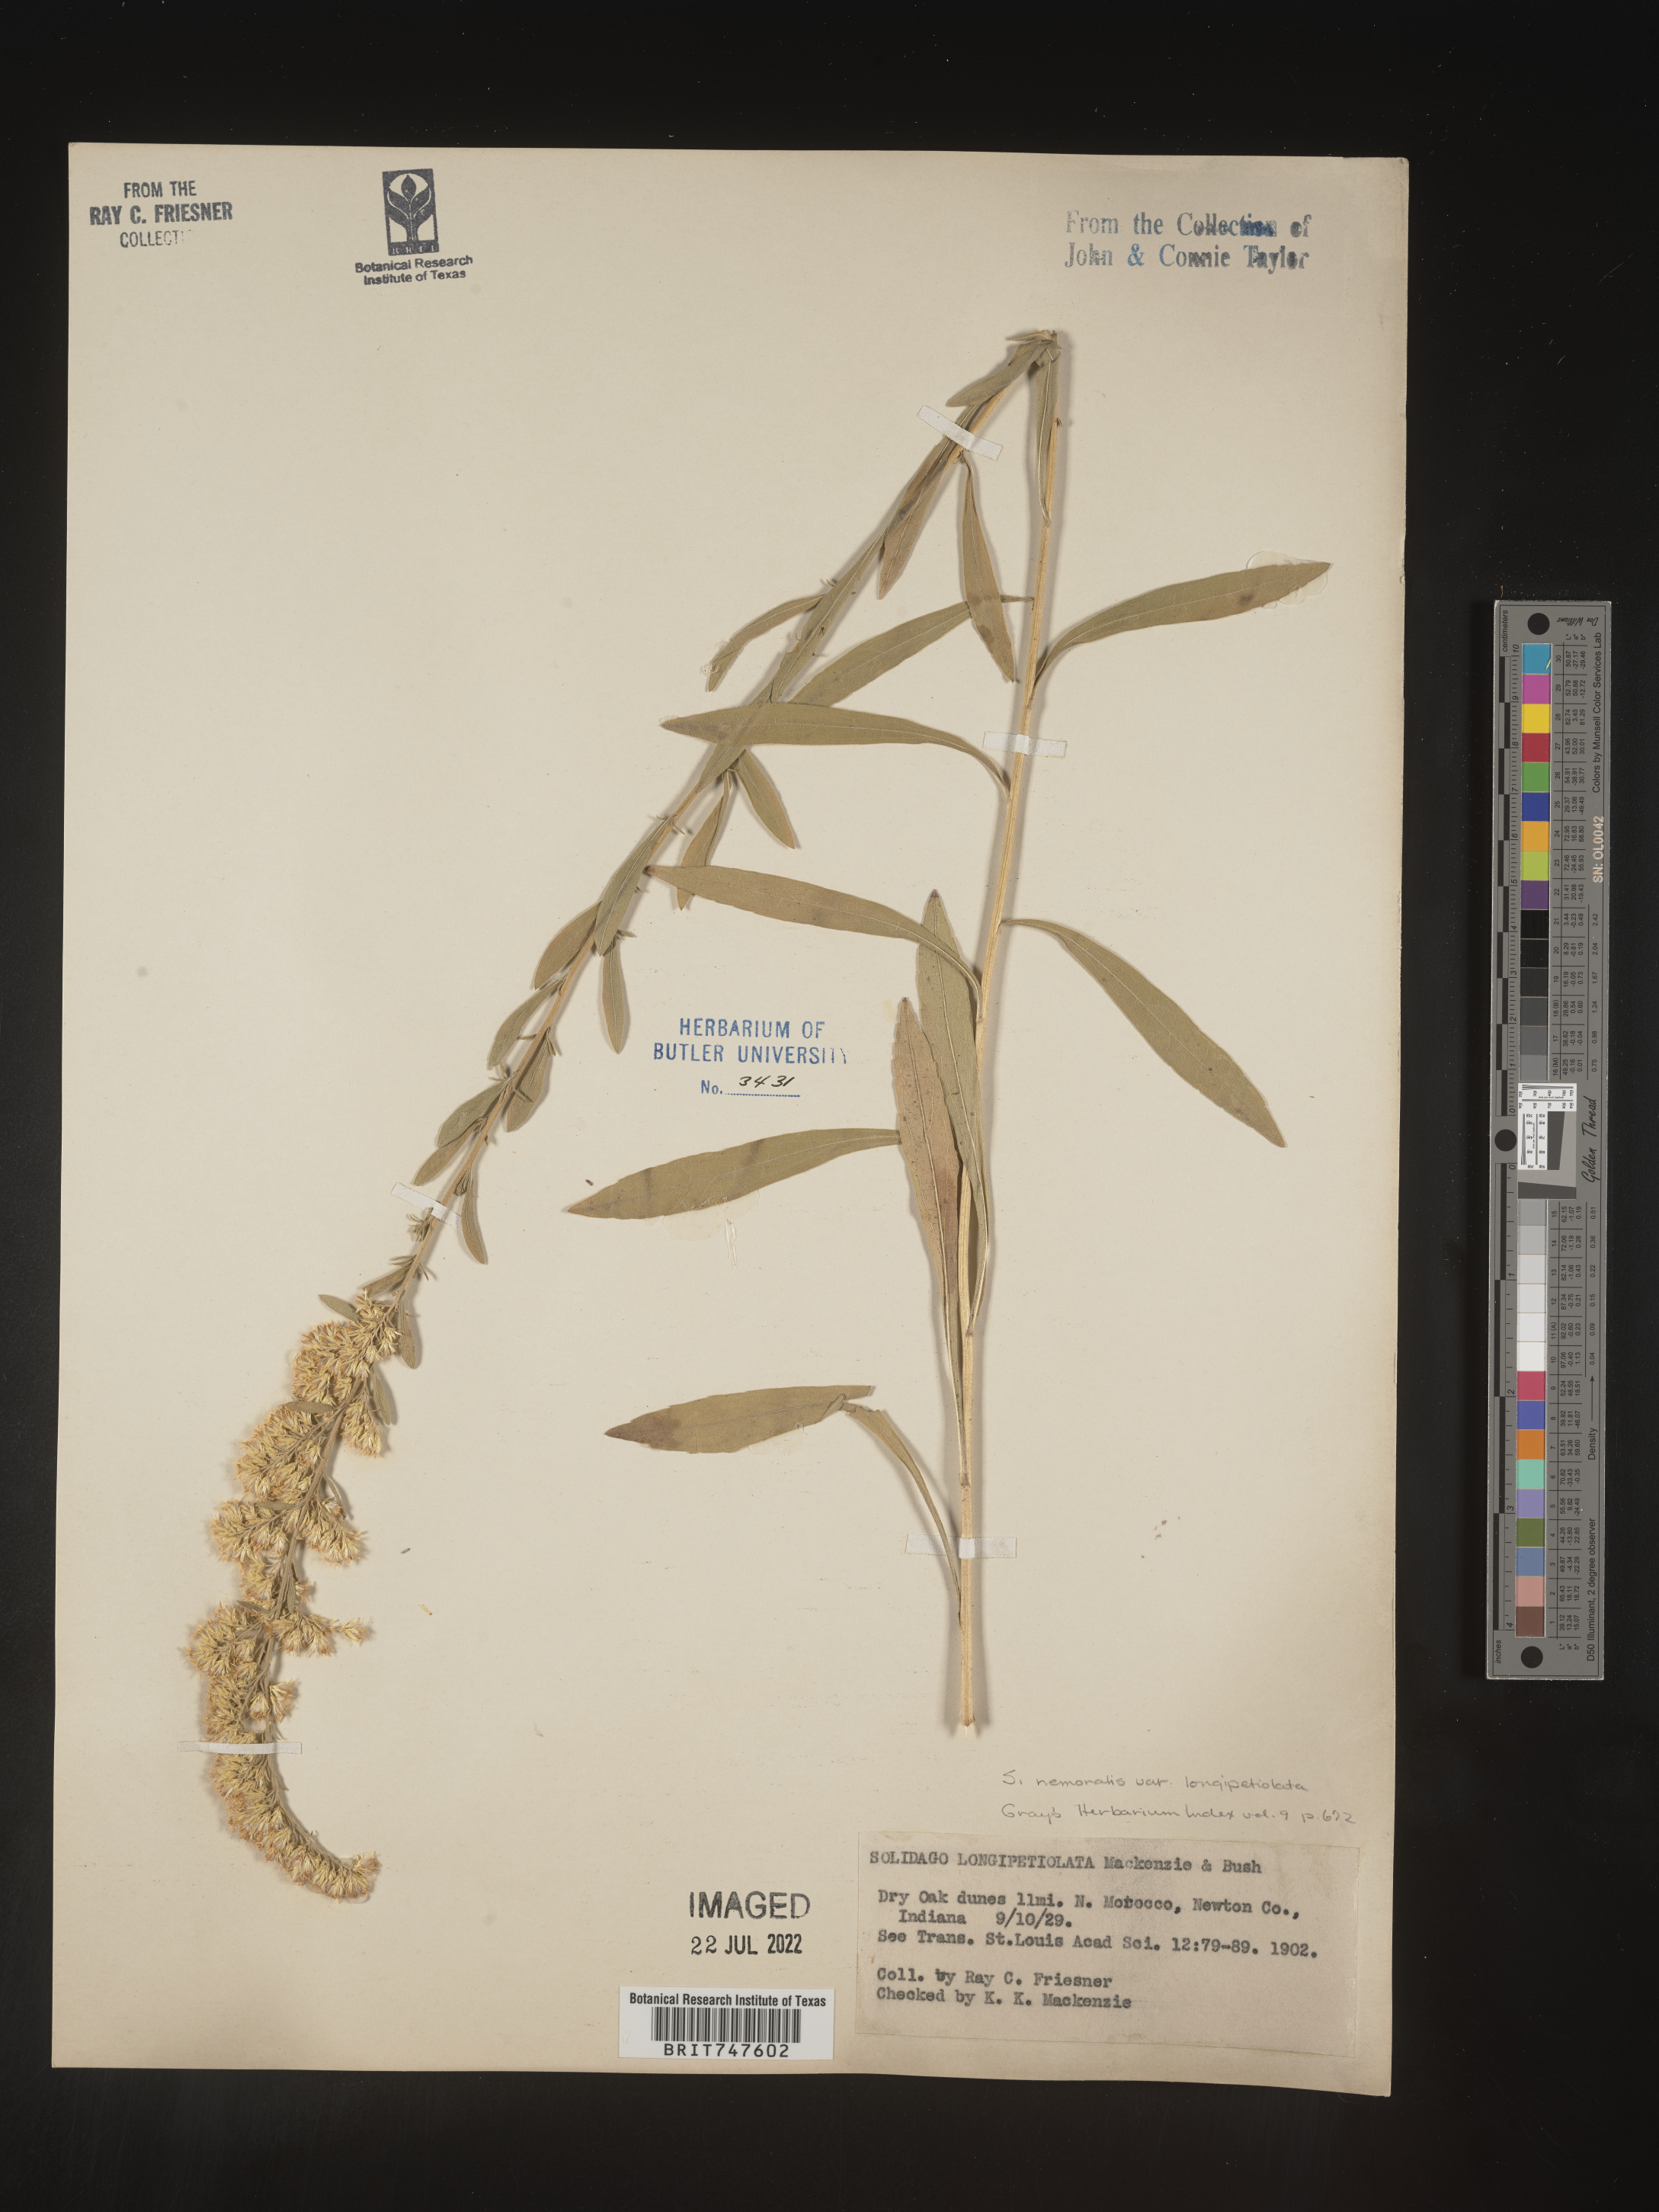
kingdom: Plantae
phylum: Tracheophyta
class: Magnoliopsida
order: Asterales
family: Asteraceae
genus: Solidago
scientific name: Solidago nemoralis
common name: Grey goldenrod
